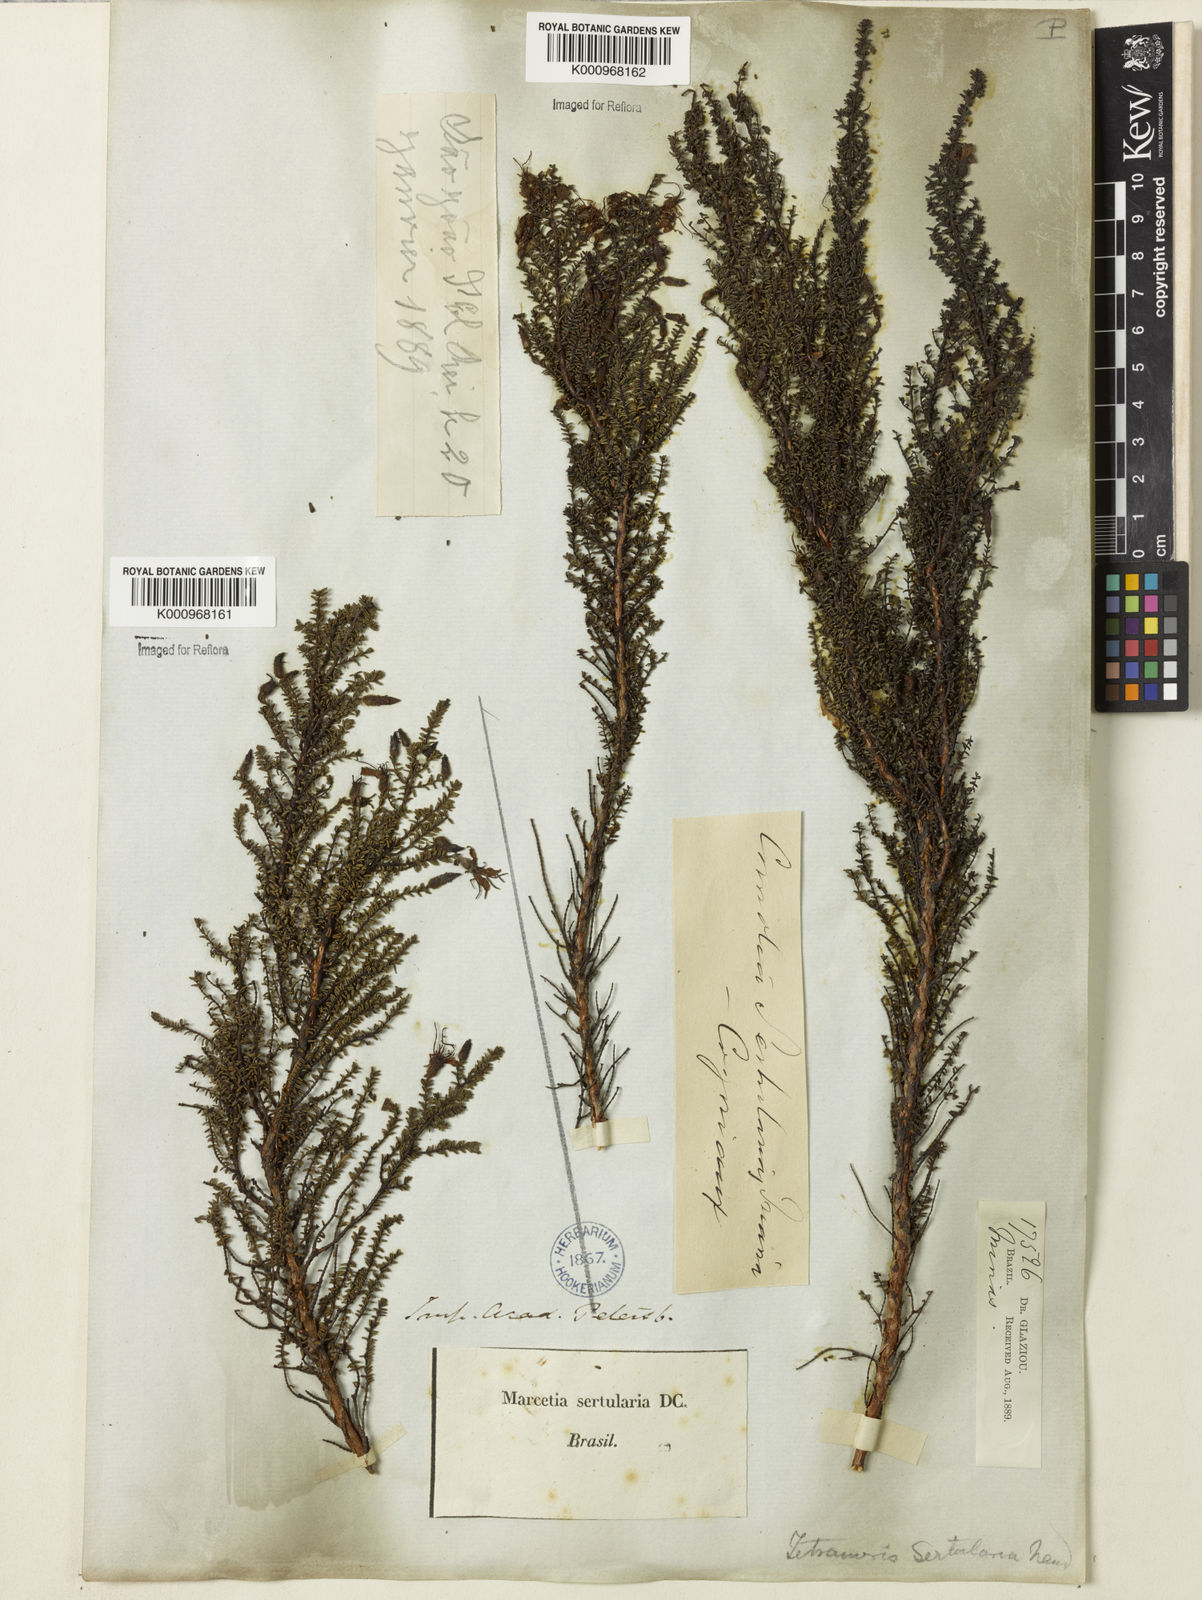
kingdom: Plantae
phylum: Tracheophyta
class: Magnoliopsida
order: Myrtales
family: Melastomataceae
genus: Fritzschia
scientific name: Fritzschia sertularia
